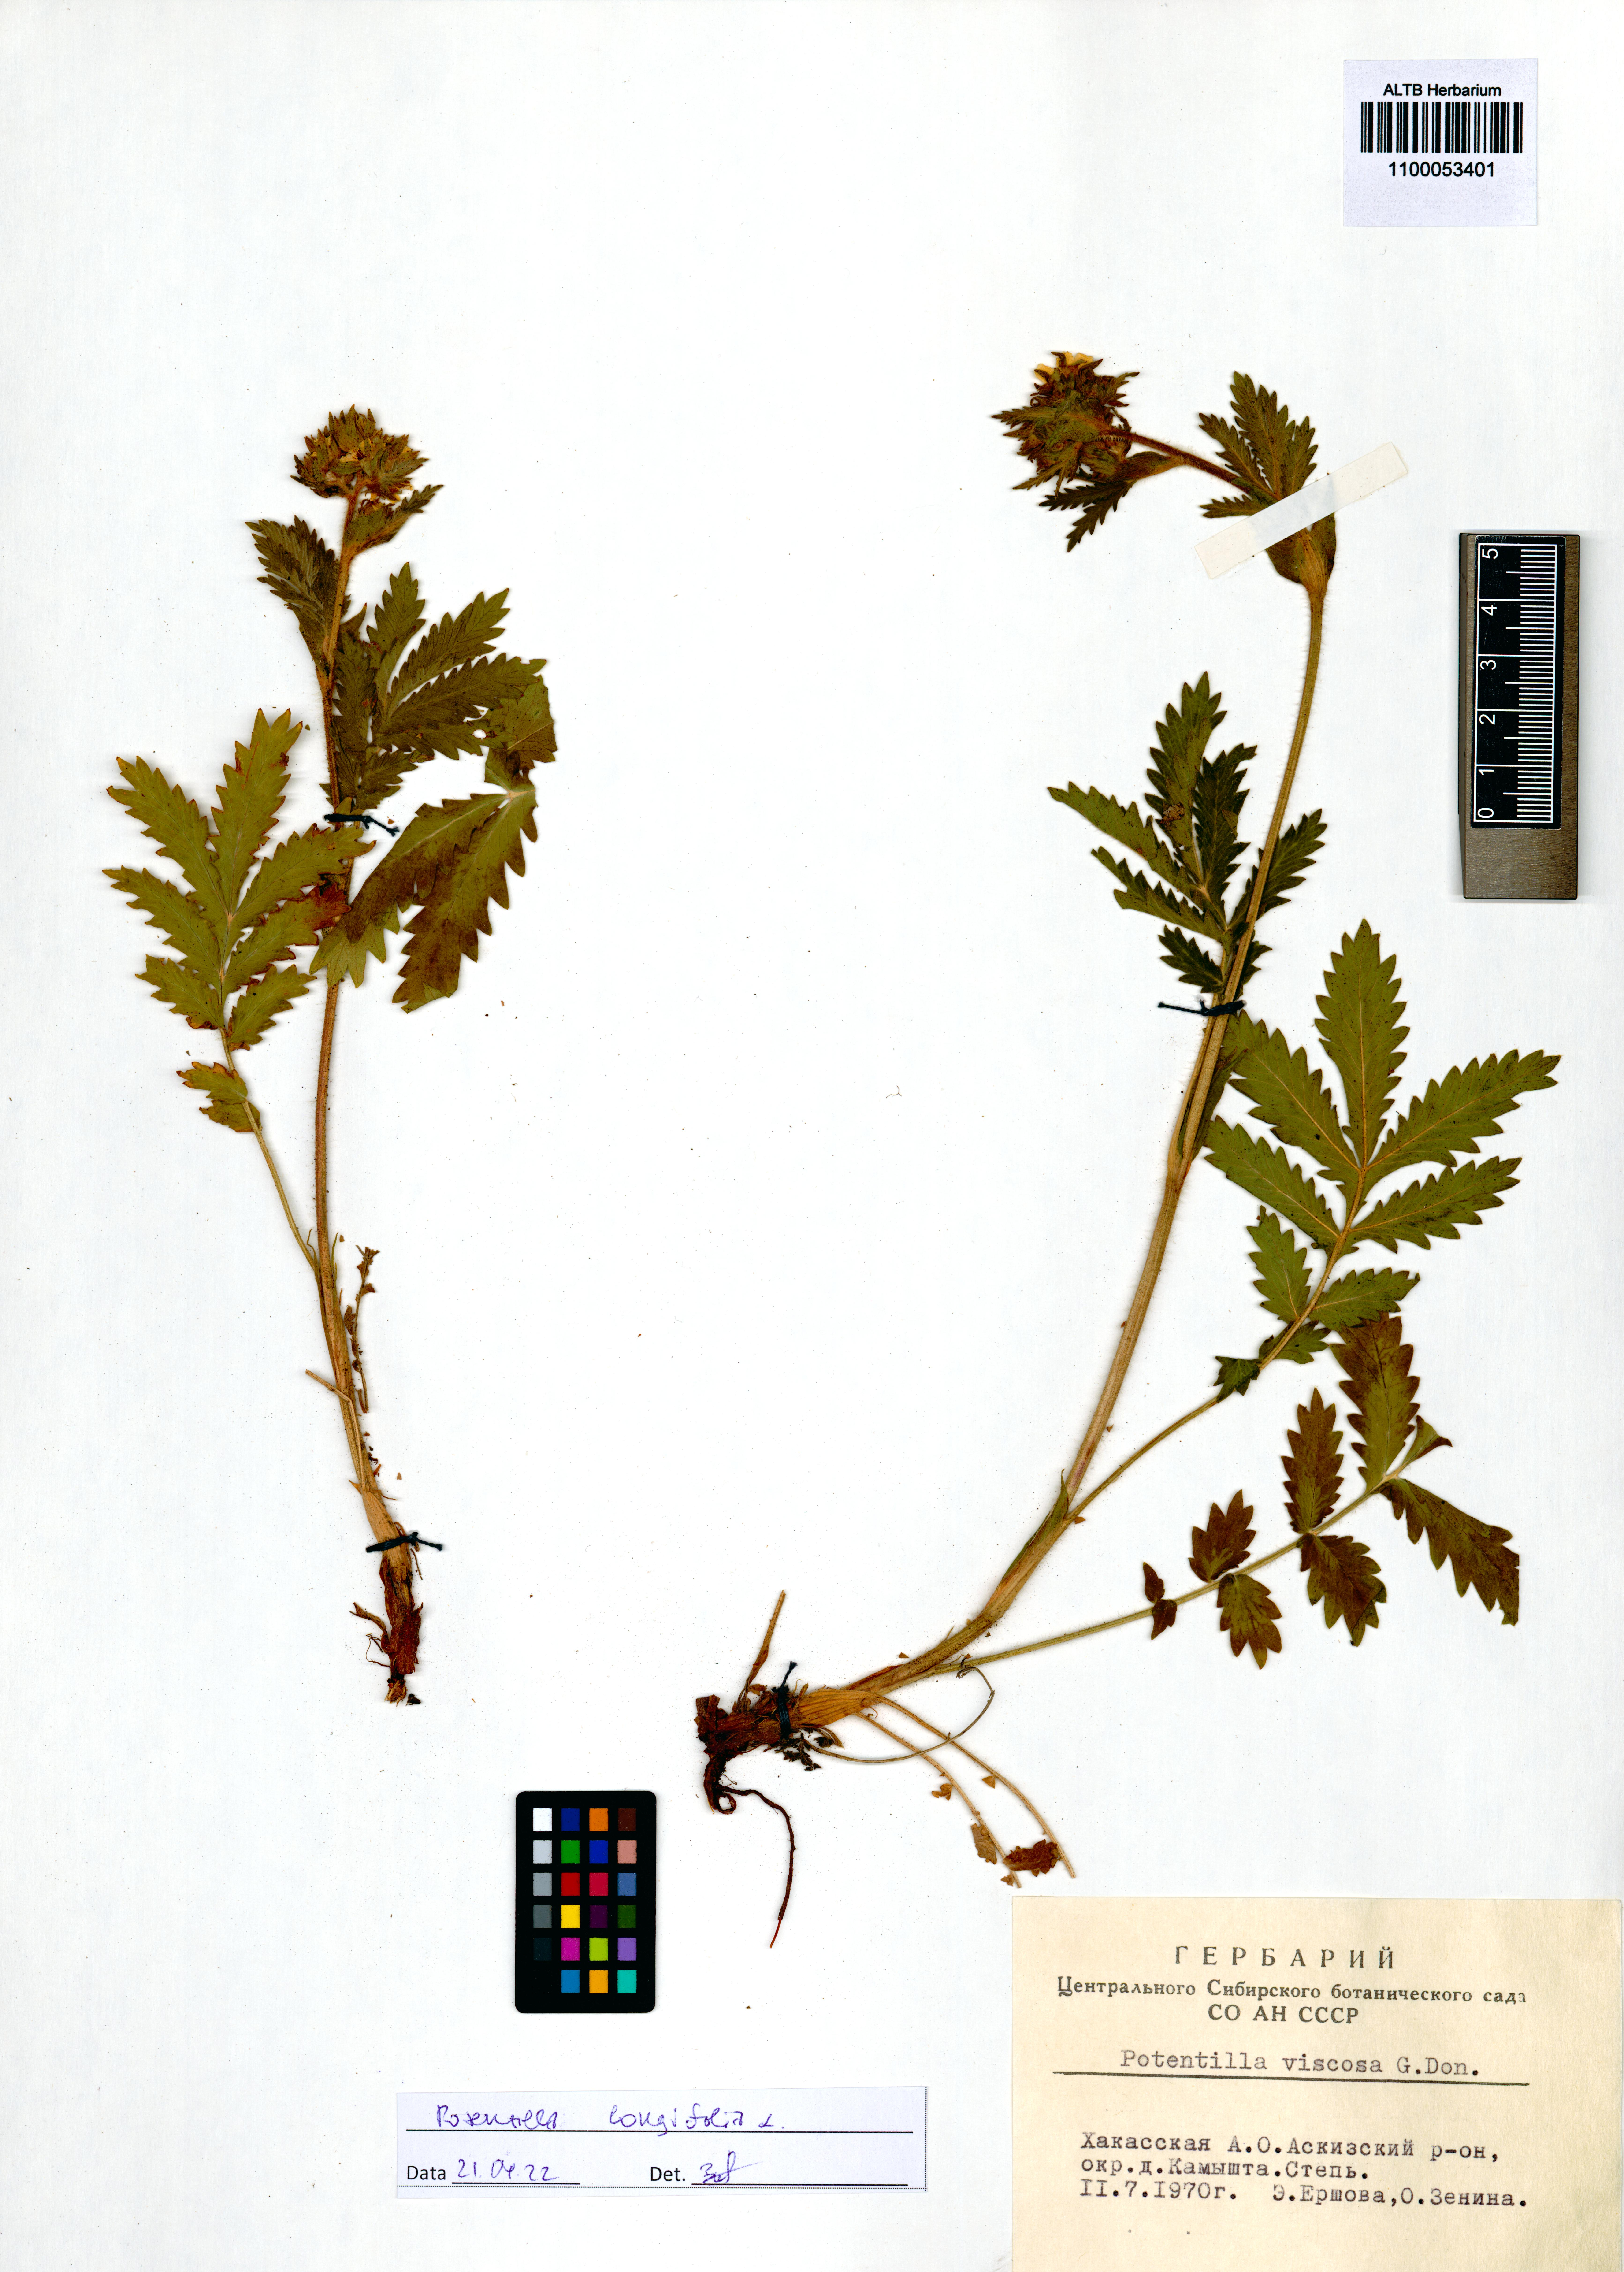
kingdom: Plantae
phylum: Tracheophyta
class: Magnoliopsida
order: Rosales
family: Rosaceae
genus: Potentilla
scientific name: Potentilla longifolia
